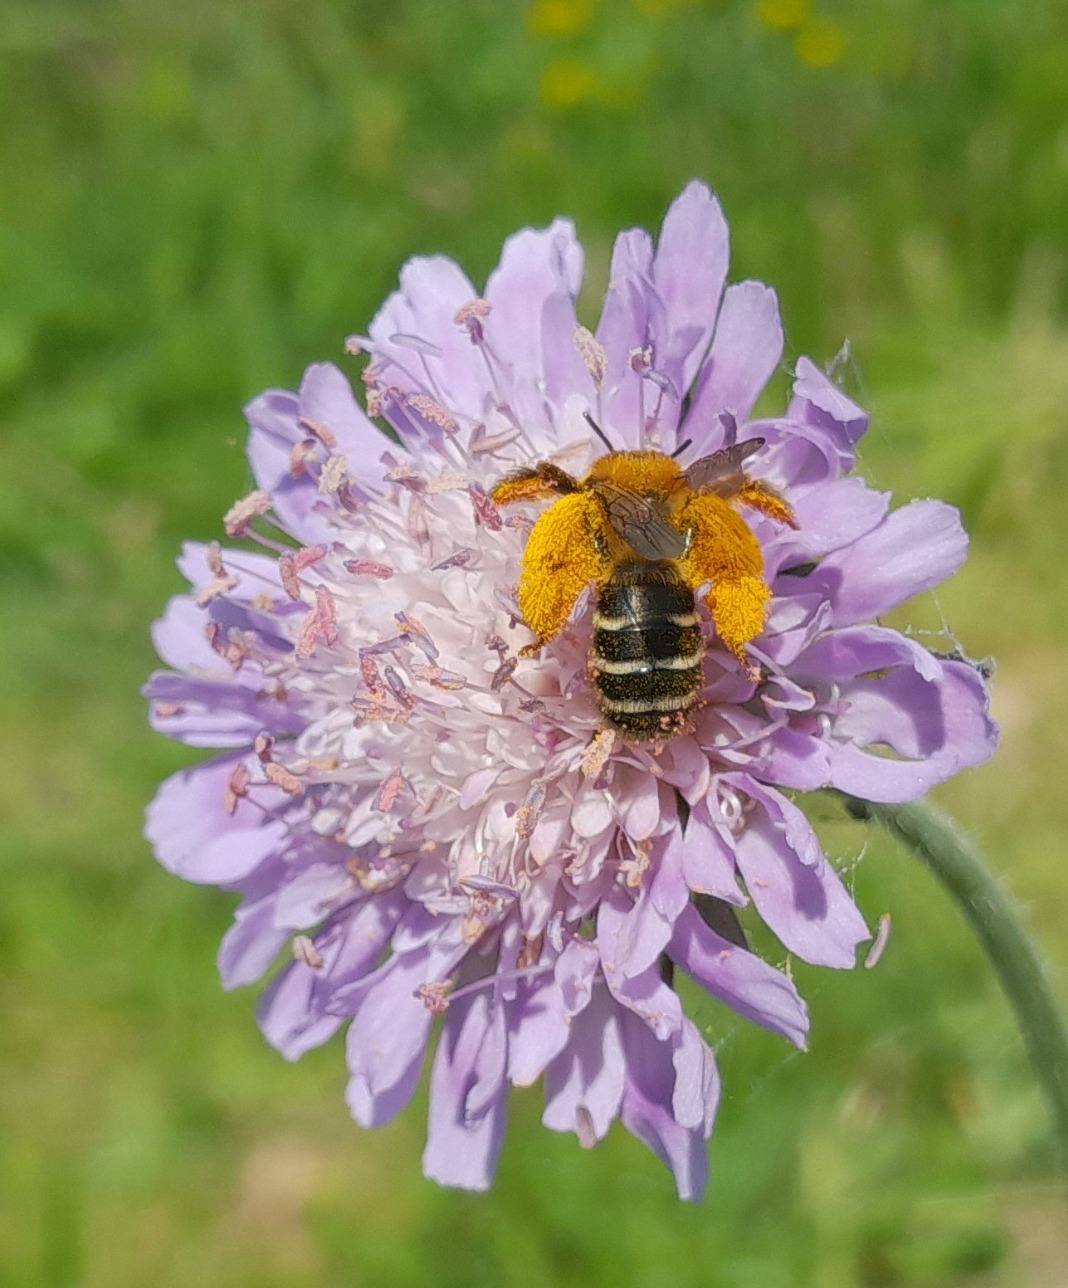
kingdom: Animalia
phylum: Arthropoda
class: Insecta
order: Hymenoptera
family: Melittidae
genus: Dasypoda
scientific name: Dasypoda hirtipes
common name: Pragtbuksebi
